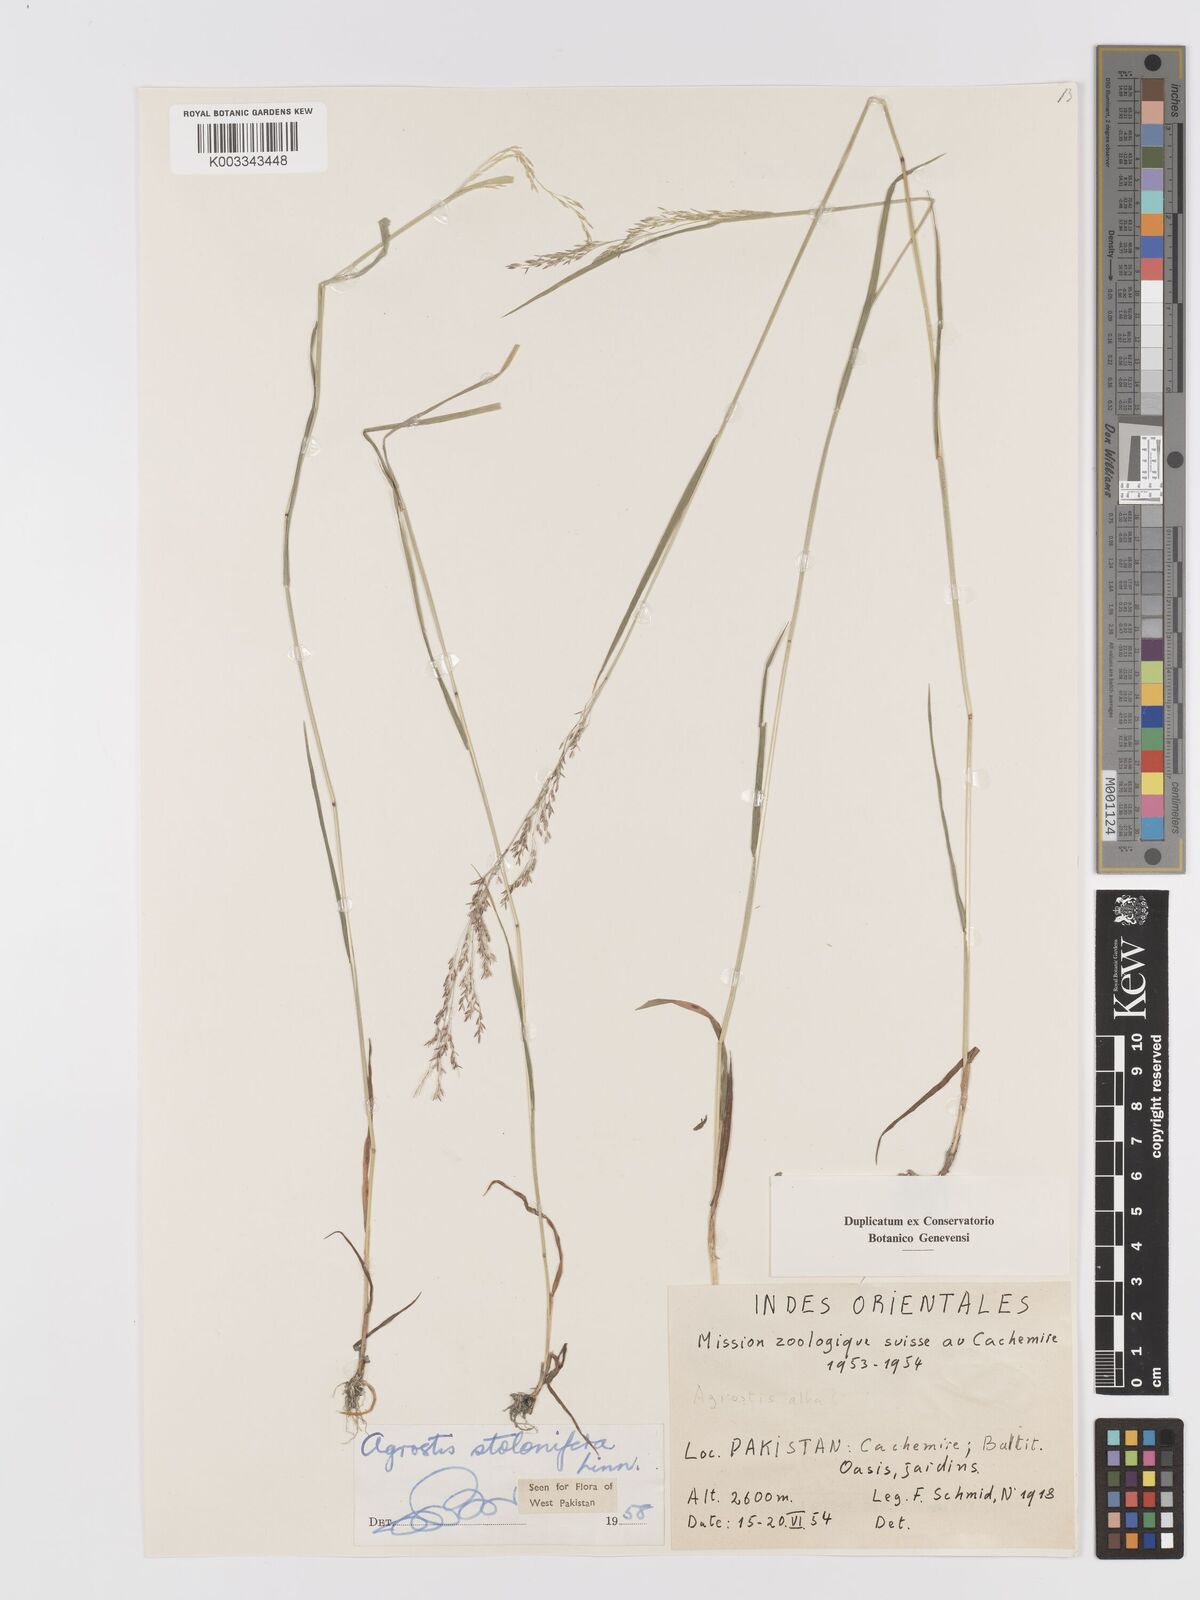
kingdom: Plantae
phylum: Tracheophyta
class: Liliopsida
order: Poales
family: Poaceae
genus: Agrostis
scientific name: Agrostis stolonifera
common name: Creeping bentgrass
